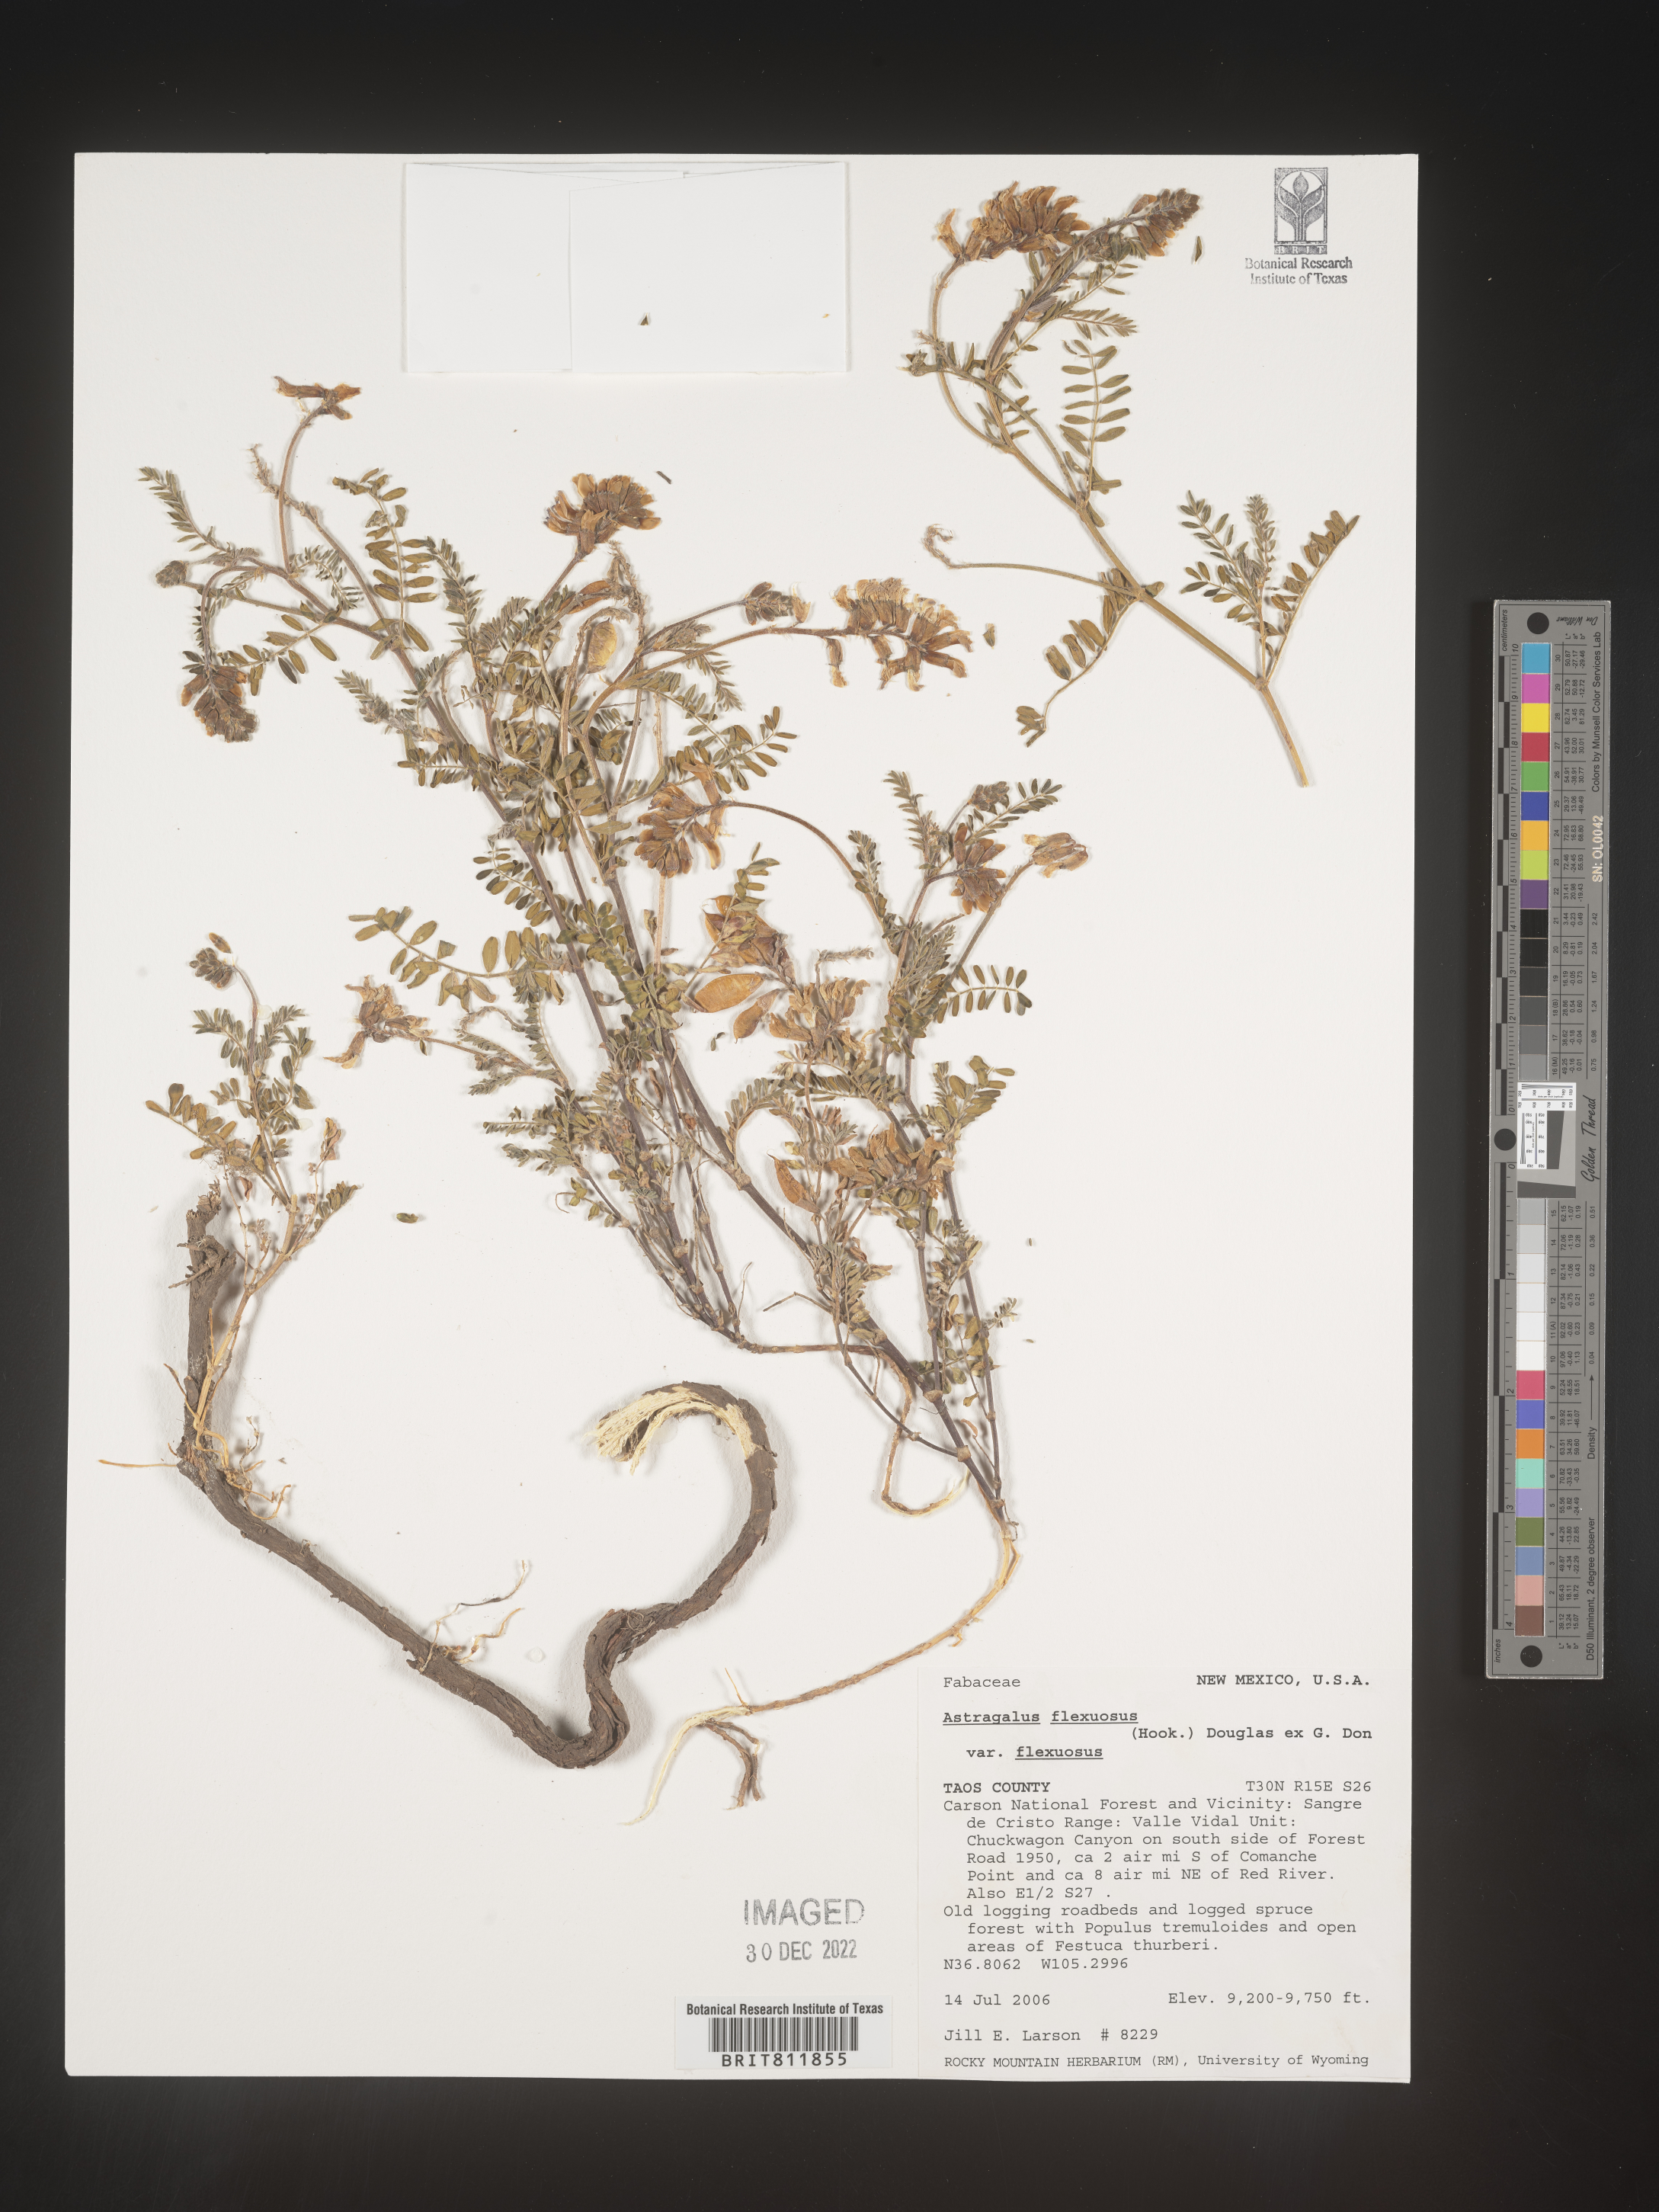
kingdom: Plantae
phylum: Tracheophyta
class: Magnoliopsida
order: Fabales
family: Fabaceae
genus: Astragalus
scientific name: Astragalus flexuosus
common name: Pliant milk-vetch
